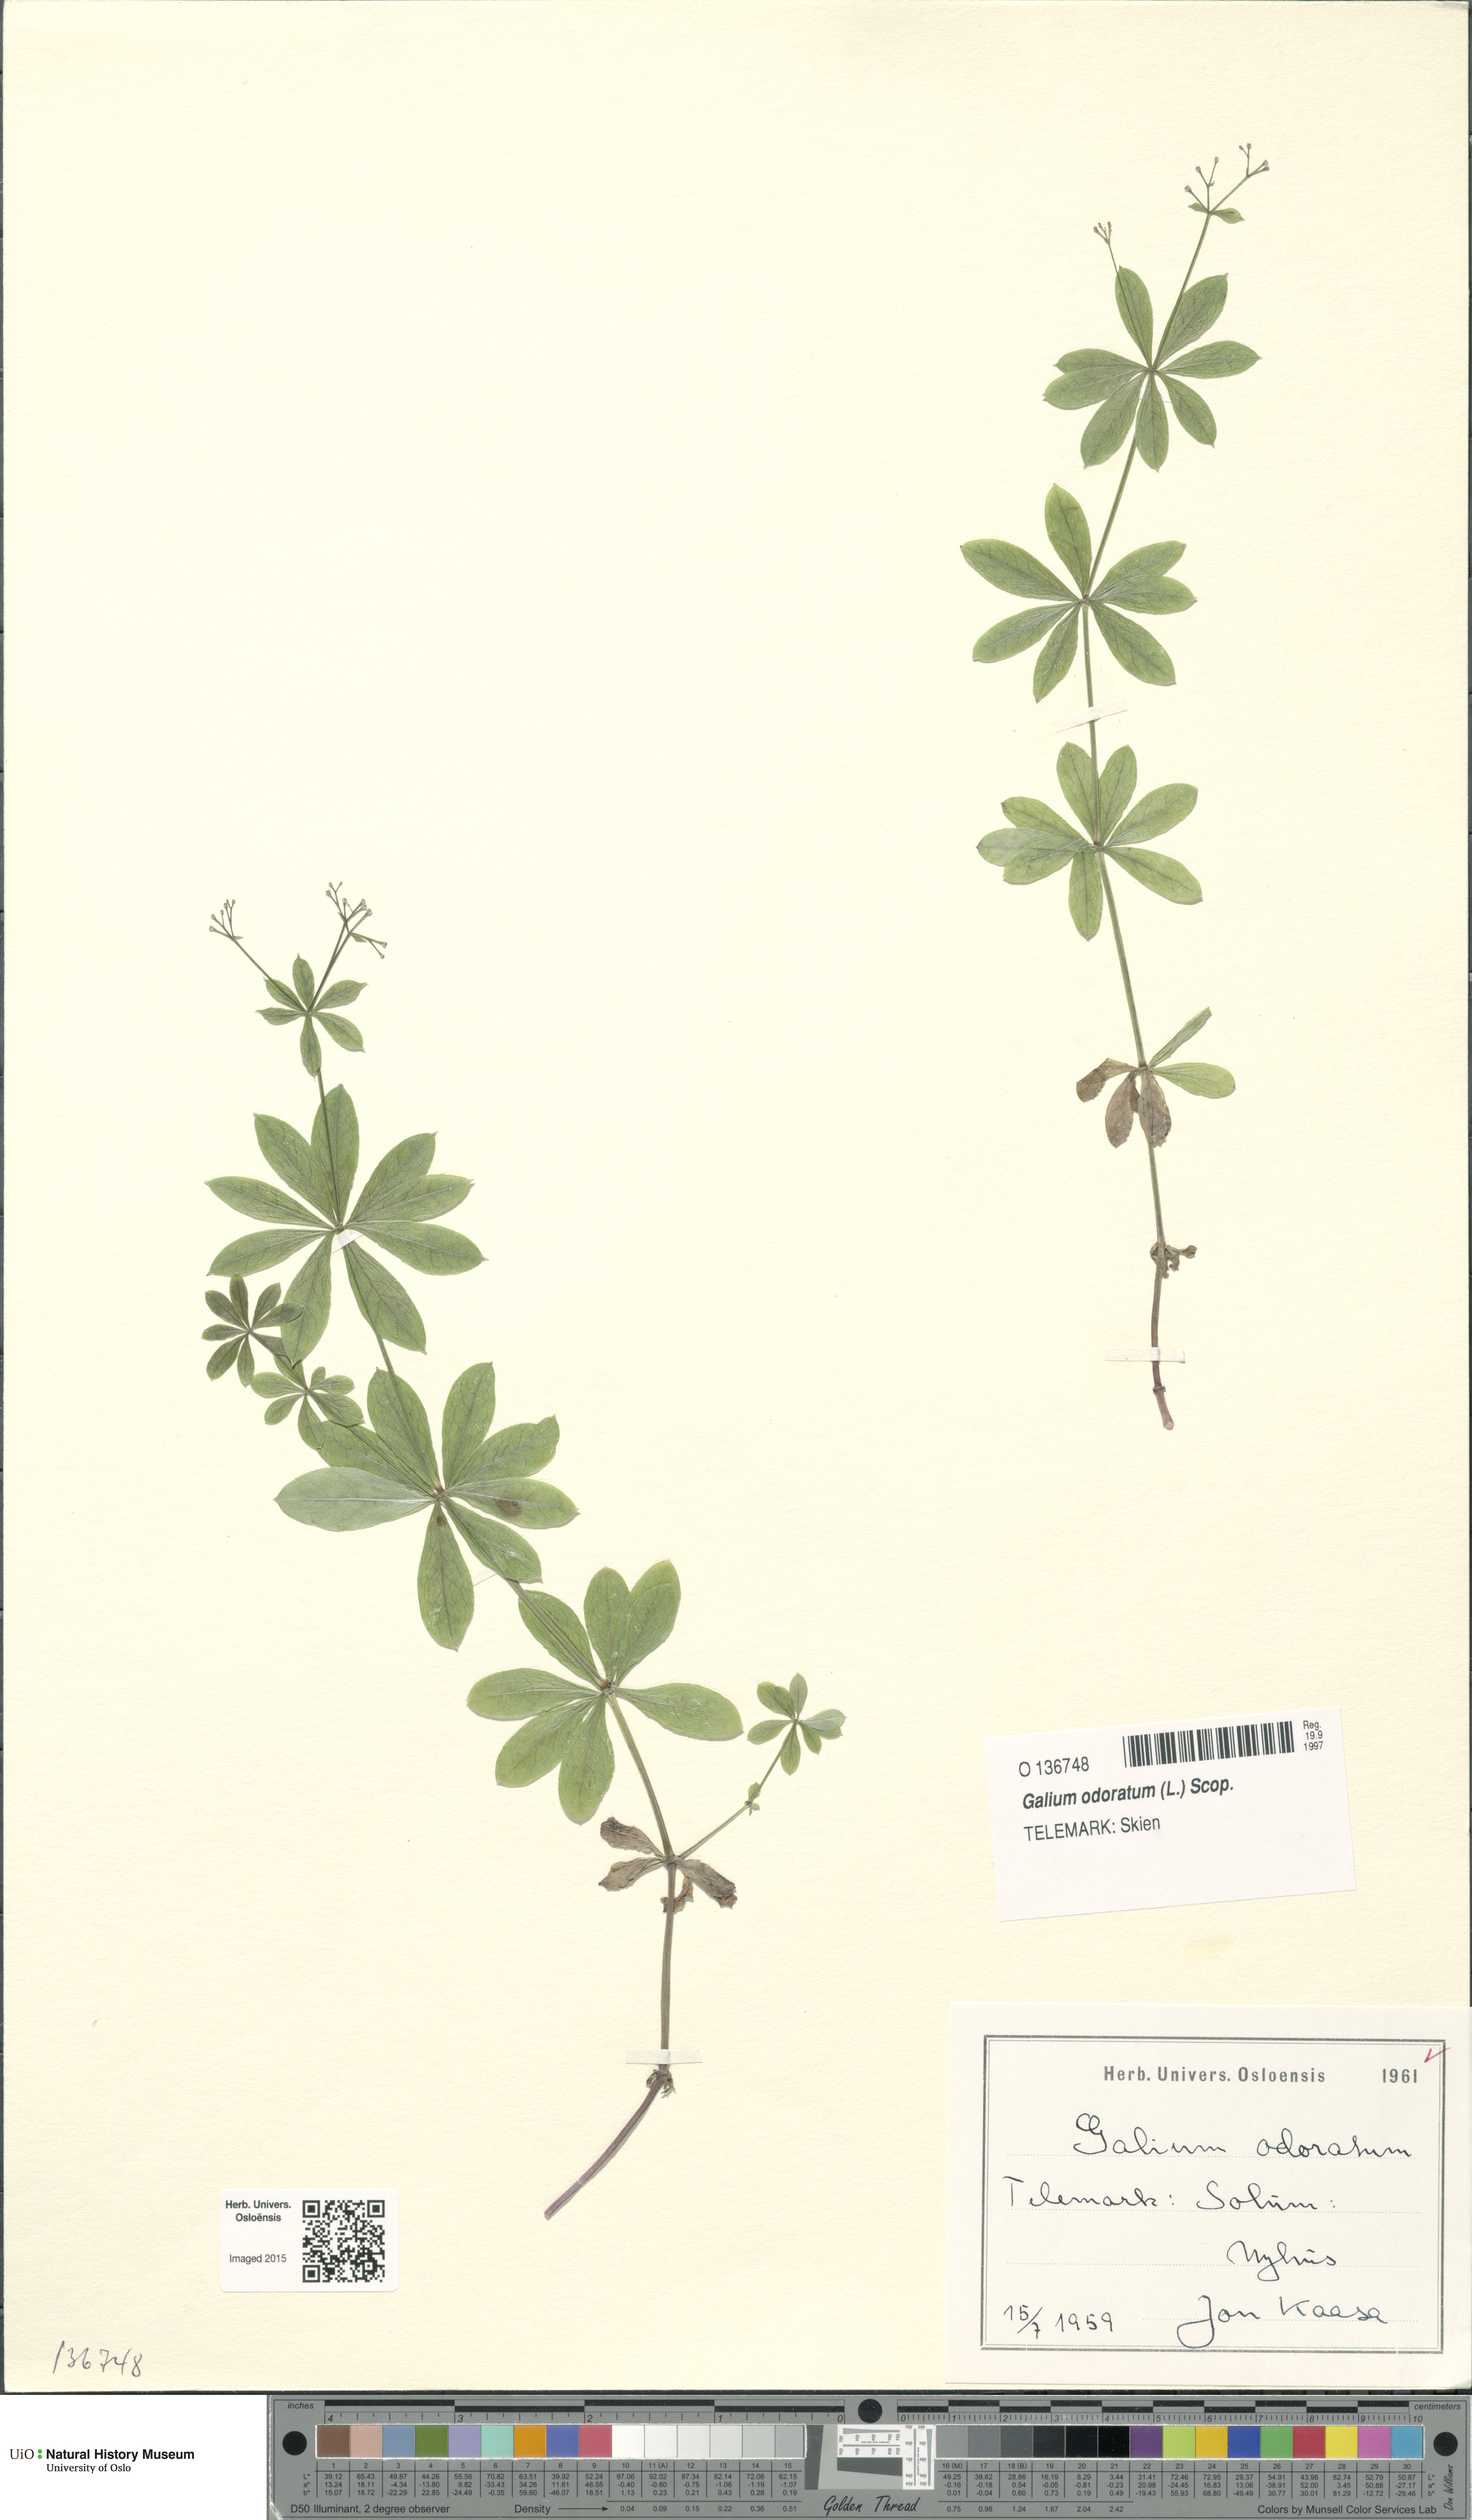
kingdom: Plantae
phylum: Tracheophyta
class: Magnoliopsida
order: Gentianales
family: Rubiaceae
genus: Galium
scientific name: Galium odoratum
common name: Sweet woodruff
